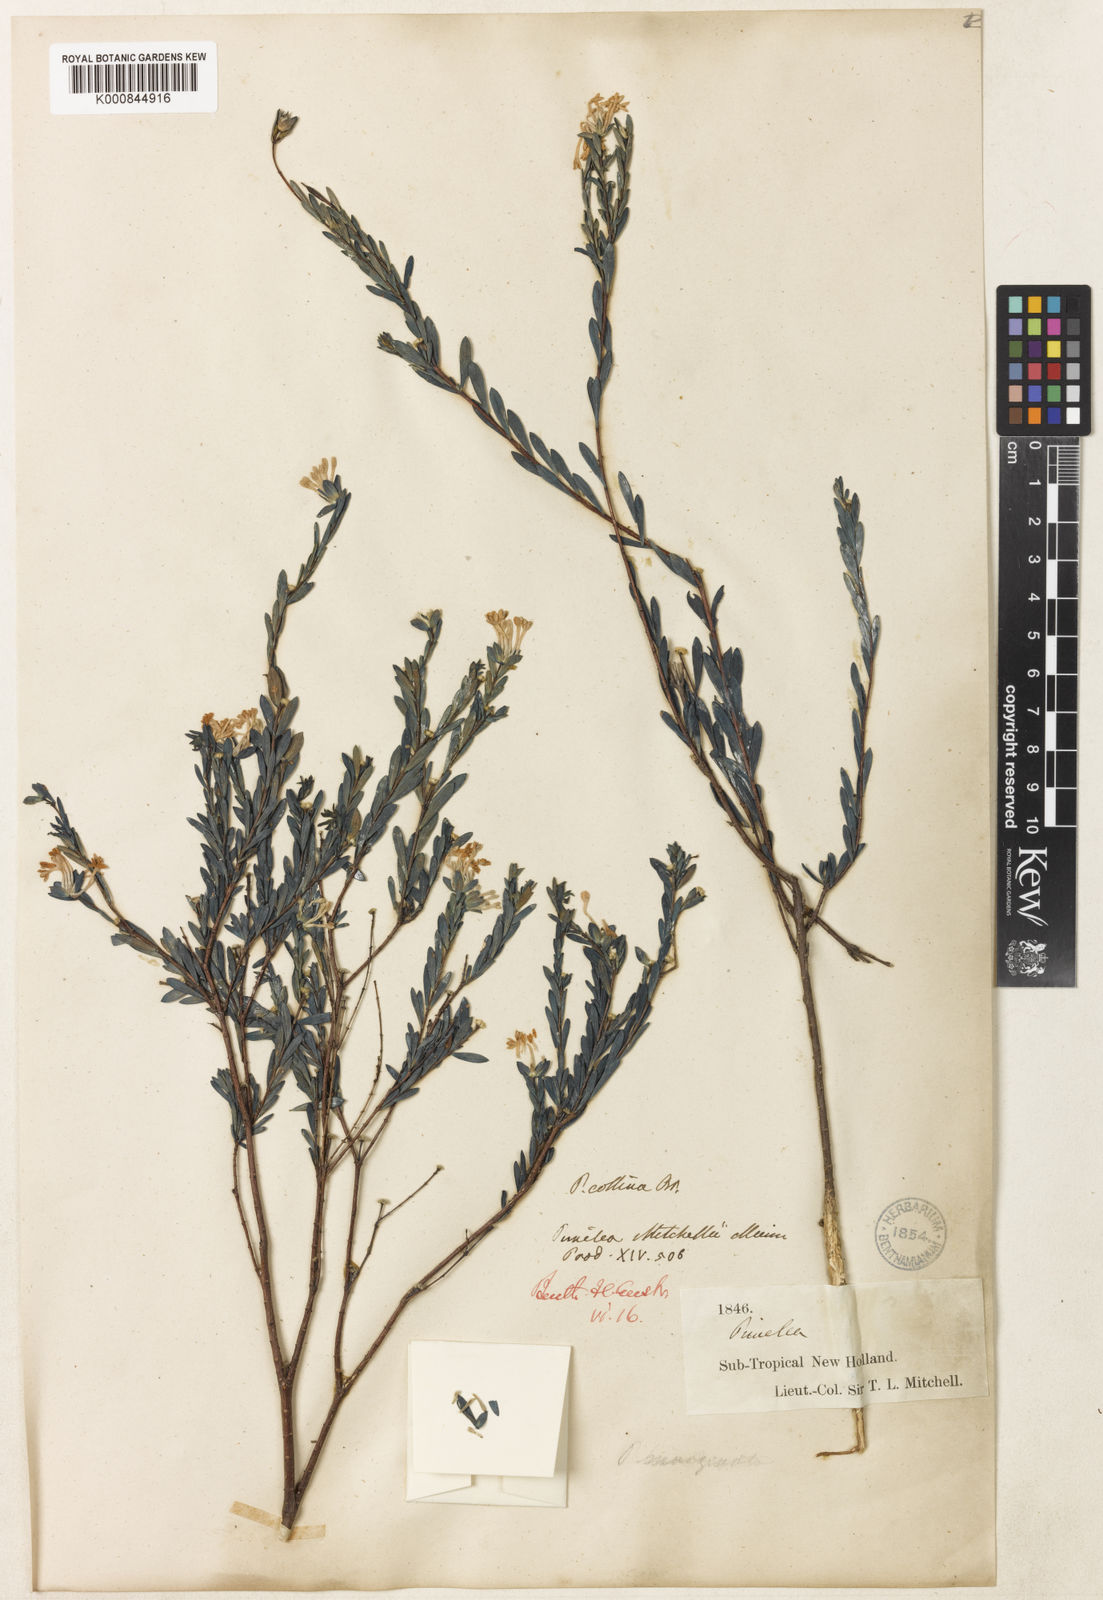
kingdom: Plantae
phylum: Tracheophyta
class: Magnoliopsida
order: Malvales
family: Thymelaeaceae
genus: Pimelea
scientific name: Pimelea linifolia
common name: Queen-of-the-bush
